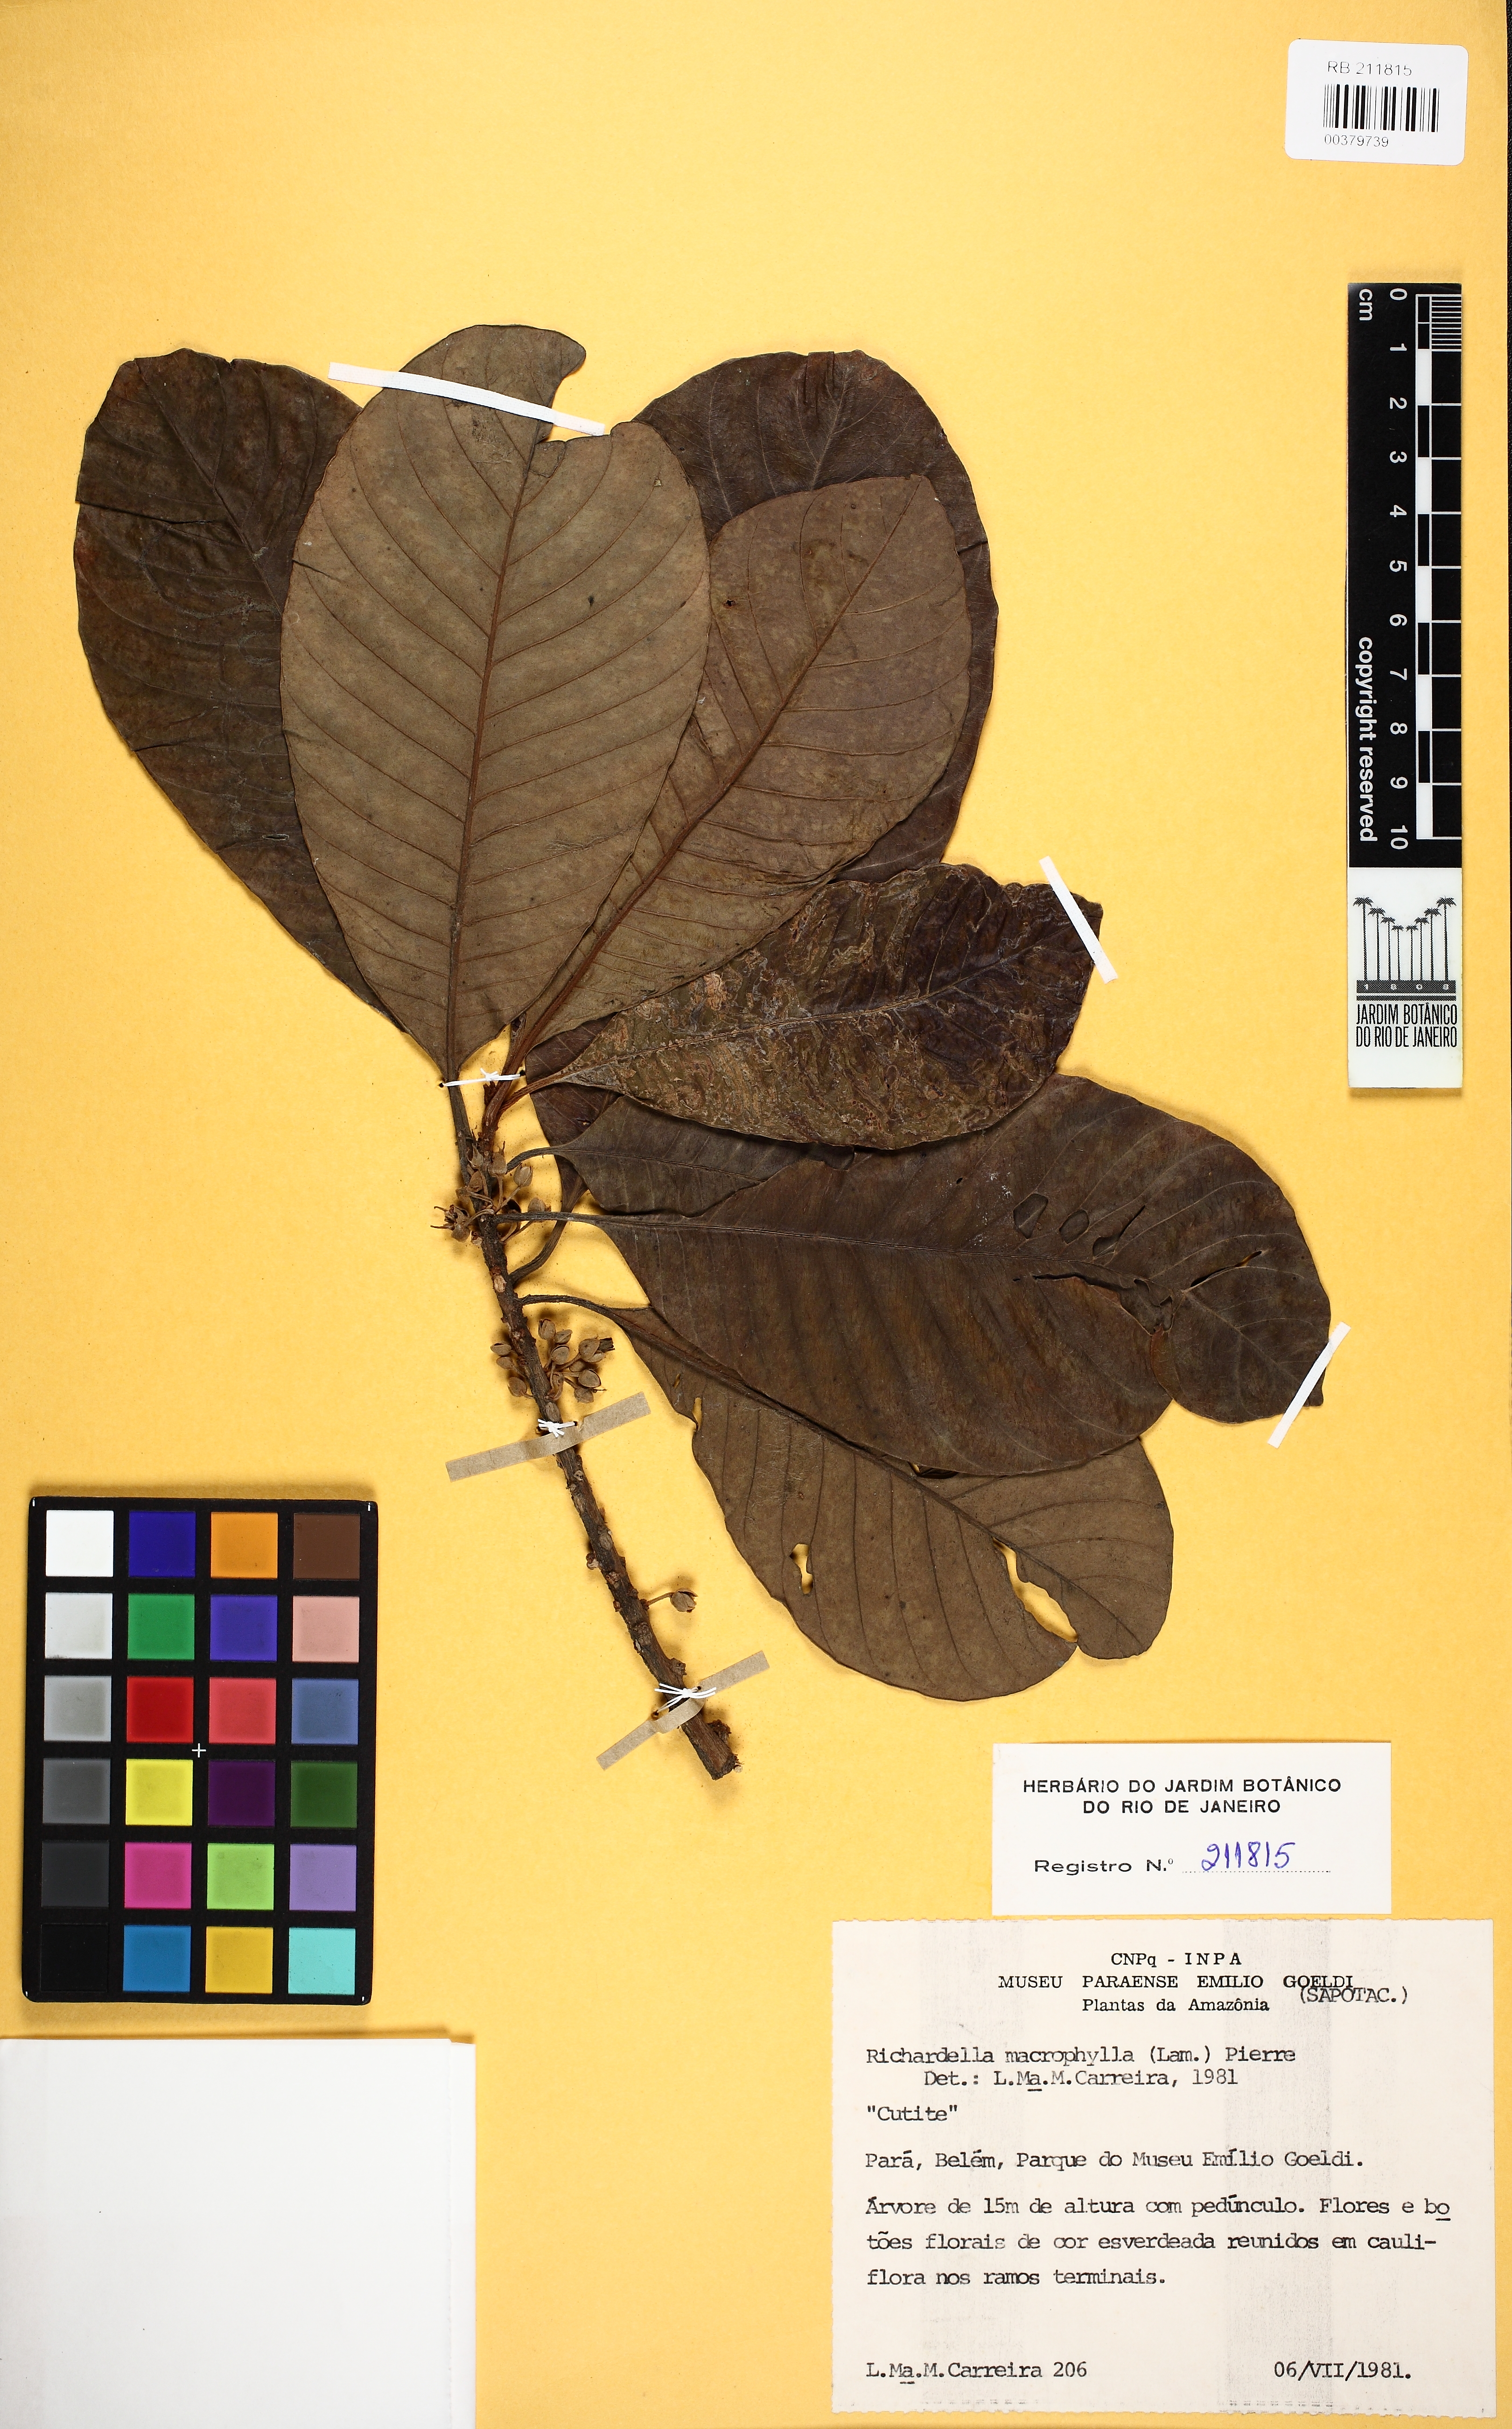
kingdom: Plantae
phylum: Tracheophyta
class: Magnoliopsida
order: Ericales
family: Sapotaceae
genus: Pouteria
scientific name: Pouteria macrophylla
